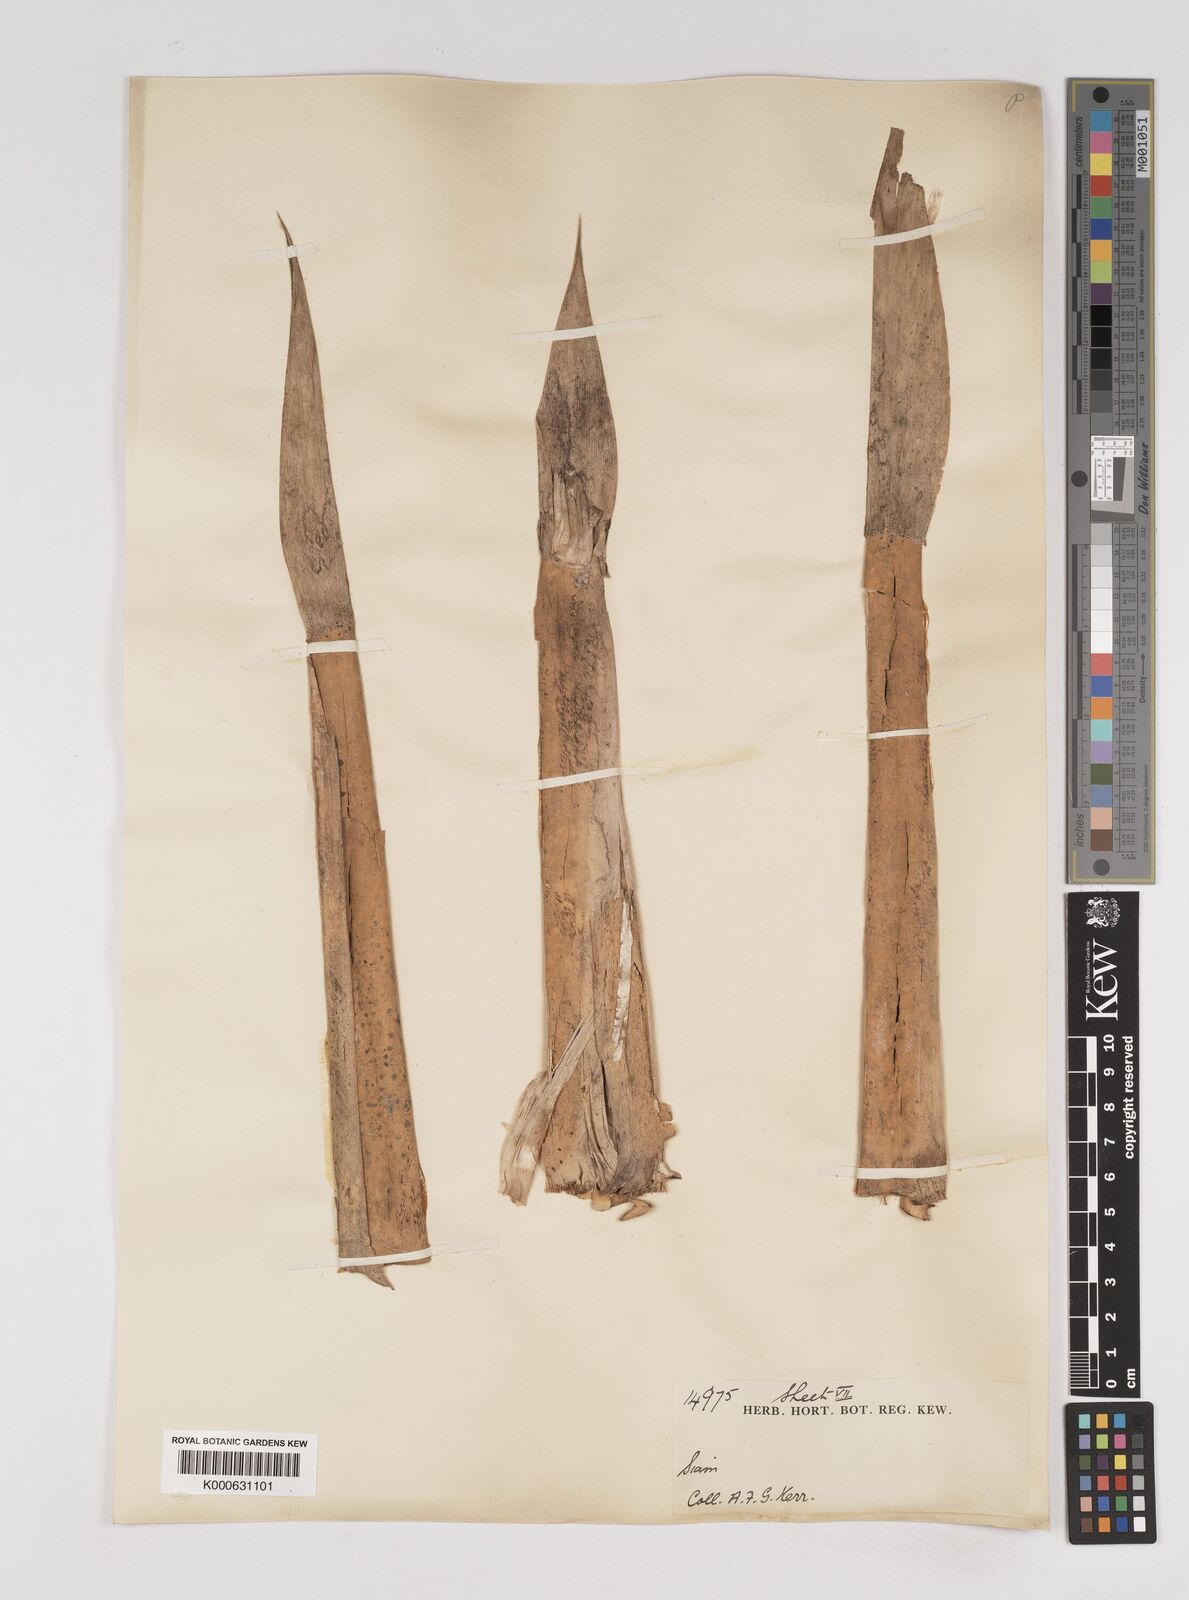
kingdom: Plantae
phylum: Tracheophyta
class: Liliopsida
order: Poales
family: Poaceae
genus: Gigantochloa
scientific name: Gigantochloa ligulata
